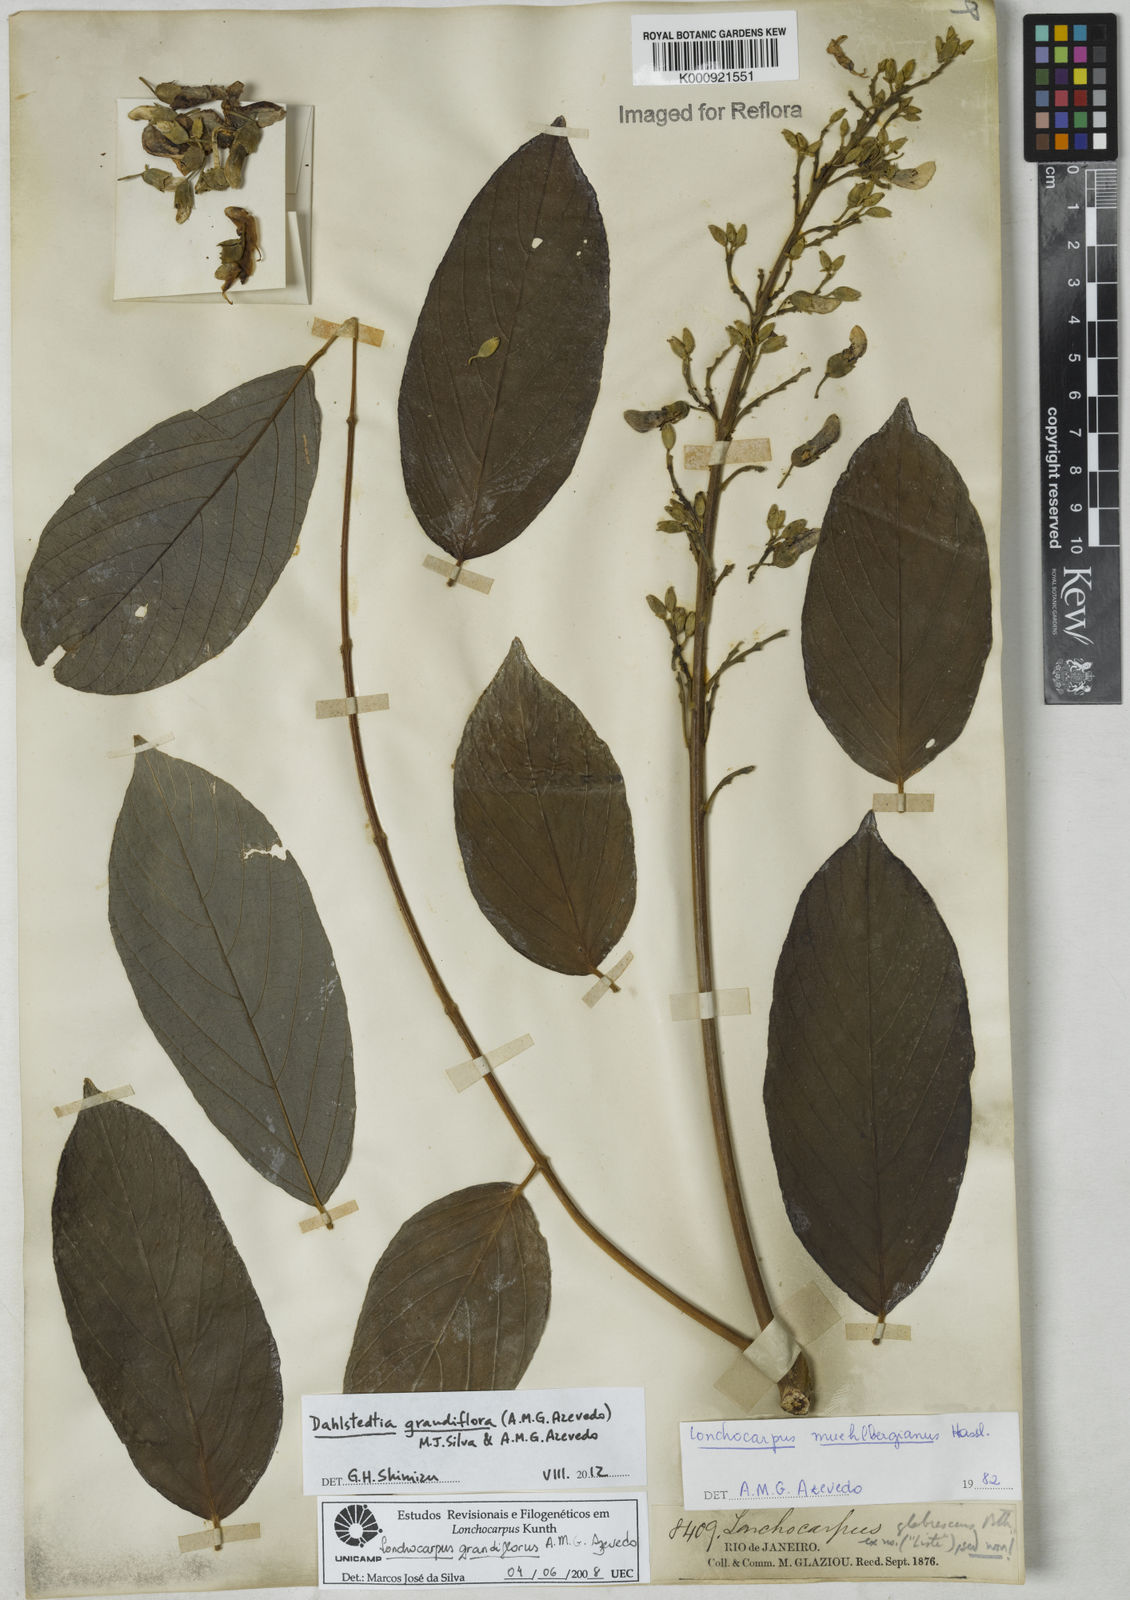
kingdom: Plantae
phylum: Tracheophyta
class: Magnoliopsida
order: Fabales
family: Fabaceae
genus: Dahlstedtia
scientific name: Dahlstedtia grandiflora
